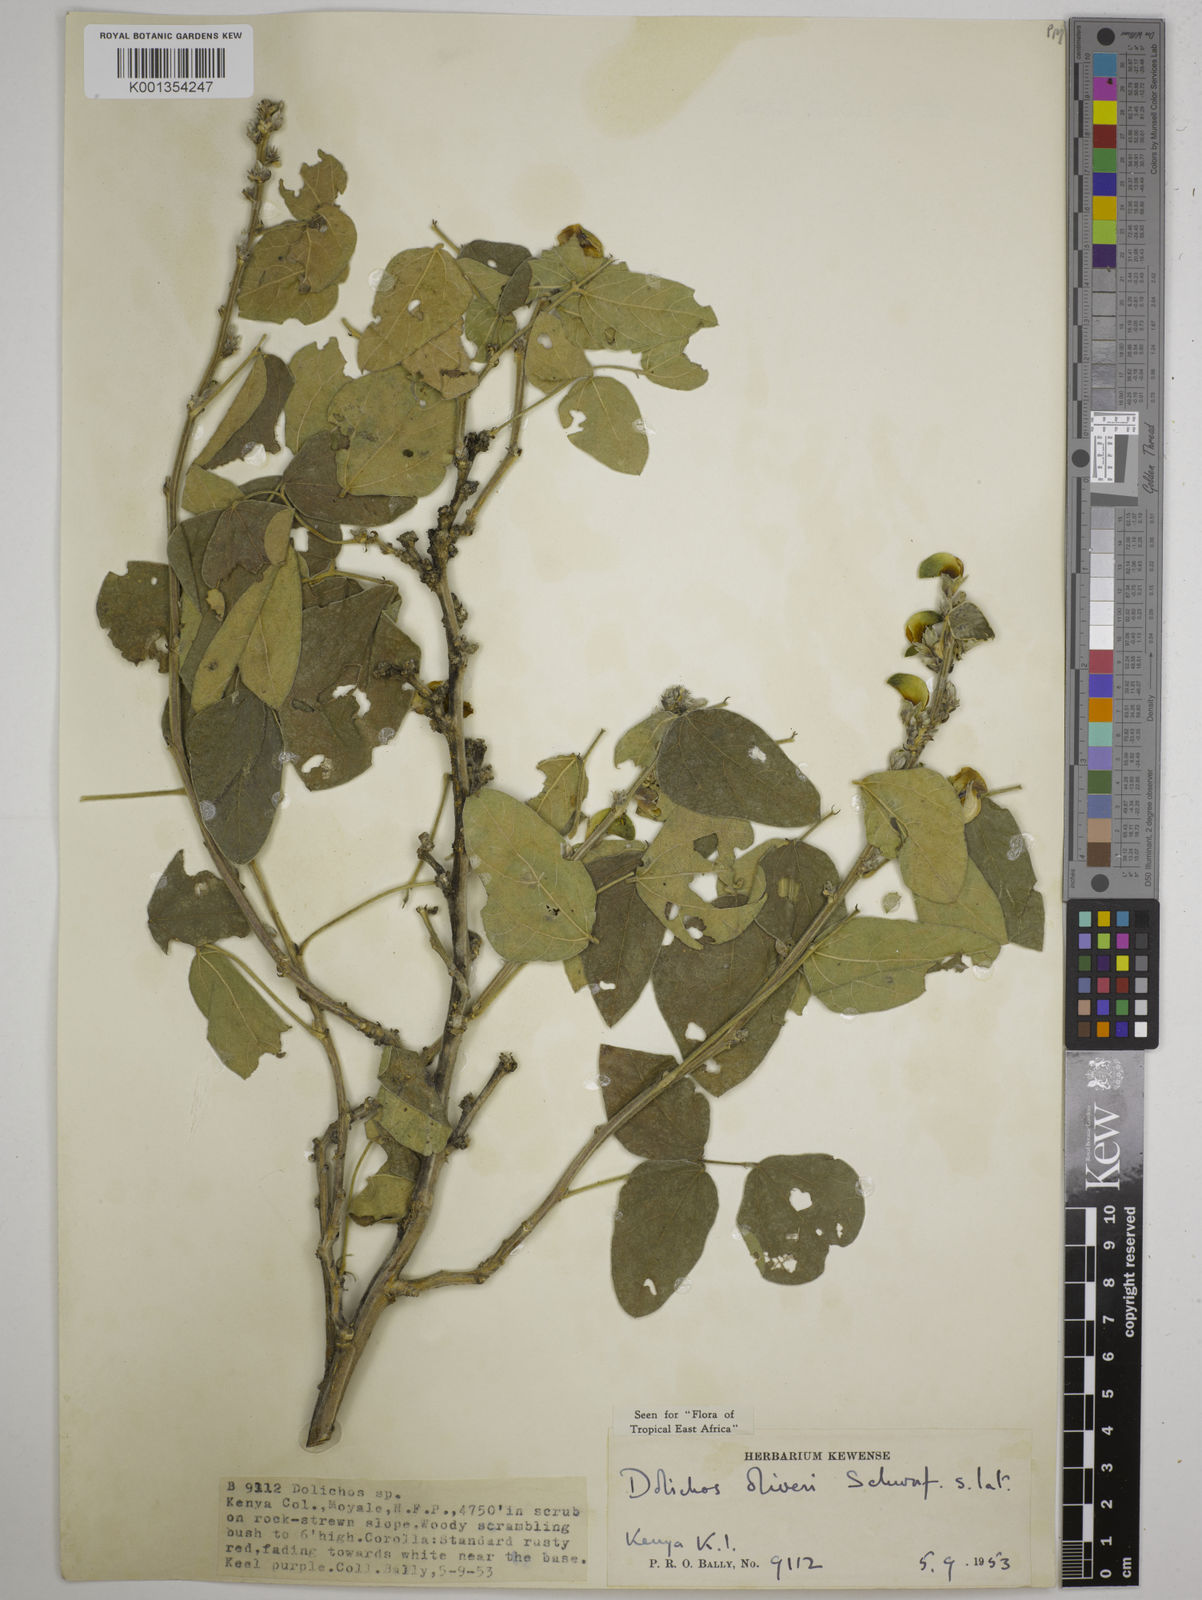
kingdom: Plantae
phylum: Tracheophyta
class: Magnoliopsida
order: Fabales
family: Fabaceae
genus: Dolichos
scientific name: Dolichos oliveri
